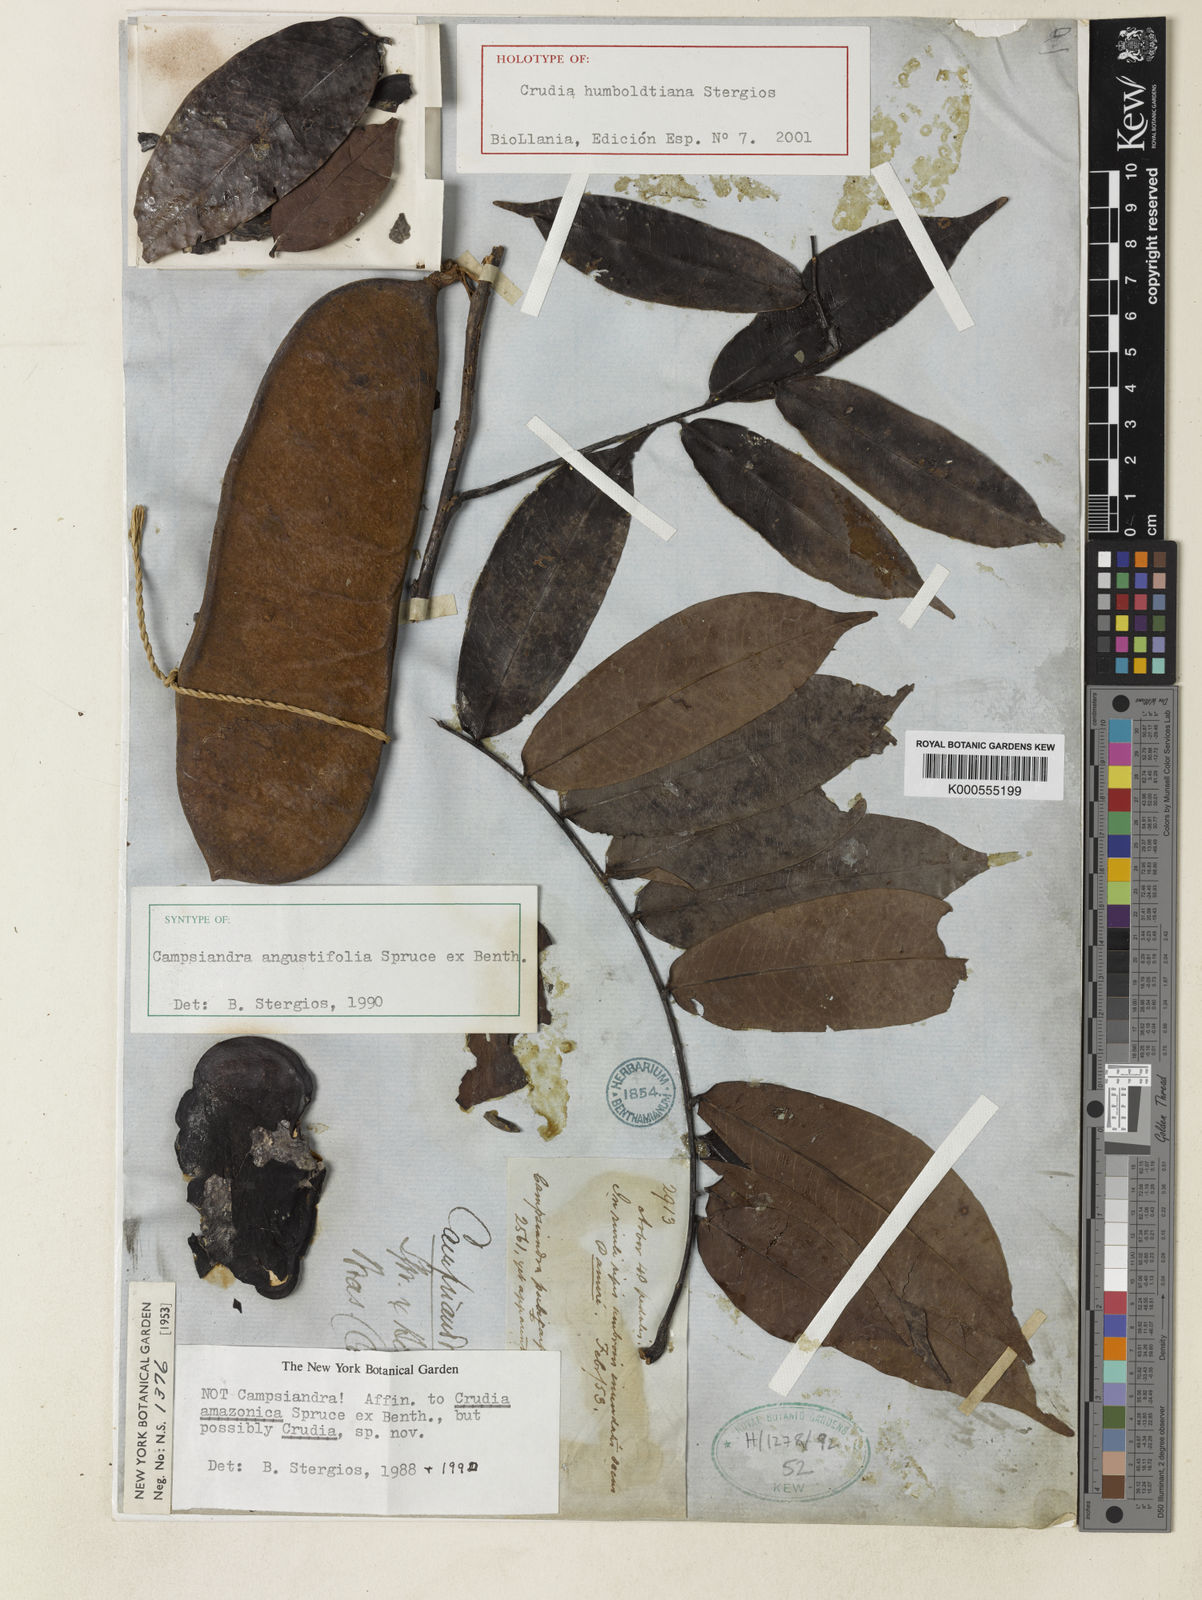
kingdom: Plantae
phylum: Tracheophyta
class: Magnoliopsida
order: Fabales
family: Fabaceae
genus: Crudia
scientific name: Crudia humboldtiana
